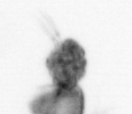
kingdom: Animalia
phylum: Arthropoda
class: Copepoda
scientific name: Copepoda
